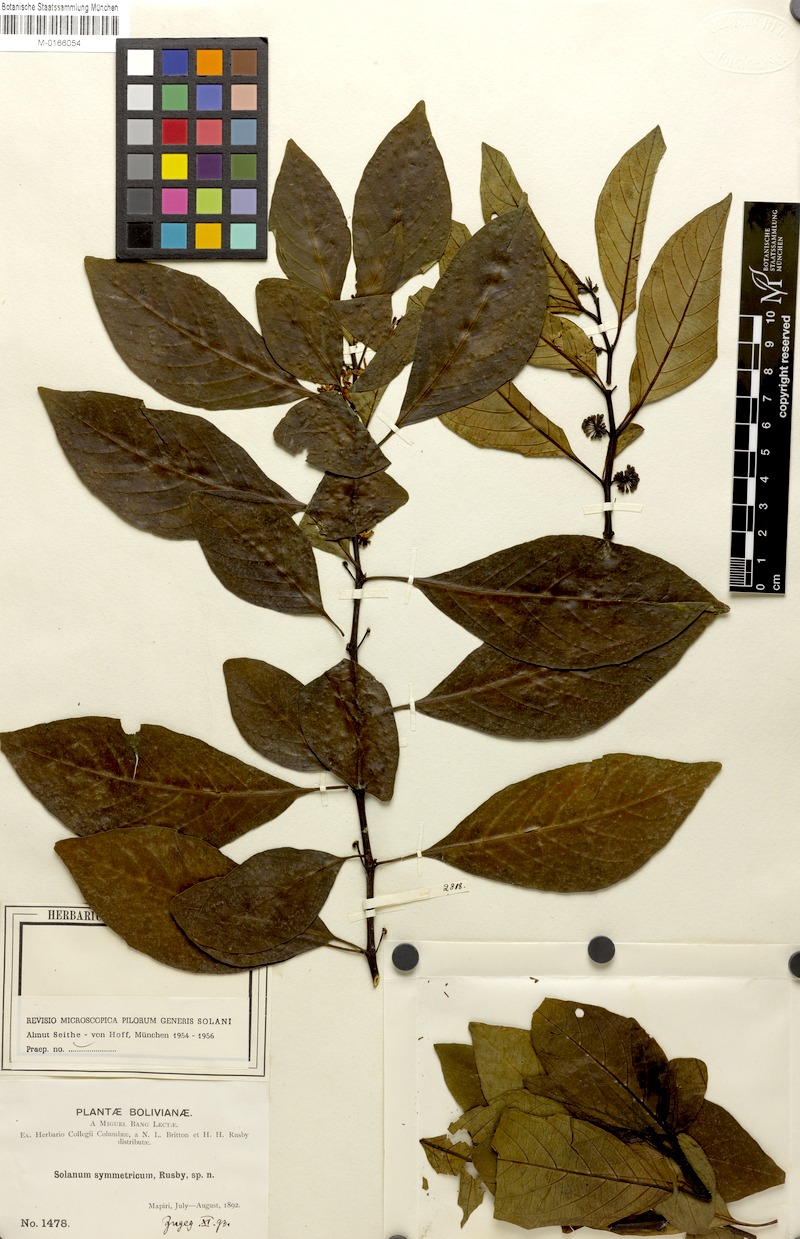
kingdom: Plantae
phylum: Tracheophyta
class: Magnoliopsida
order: Solanales
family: Solanaceae
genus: Solanum
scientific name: Solanum symmetricum
